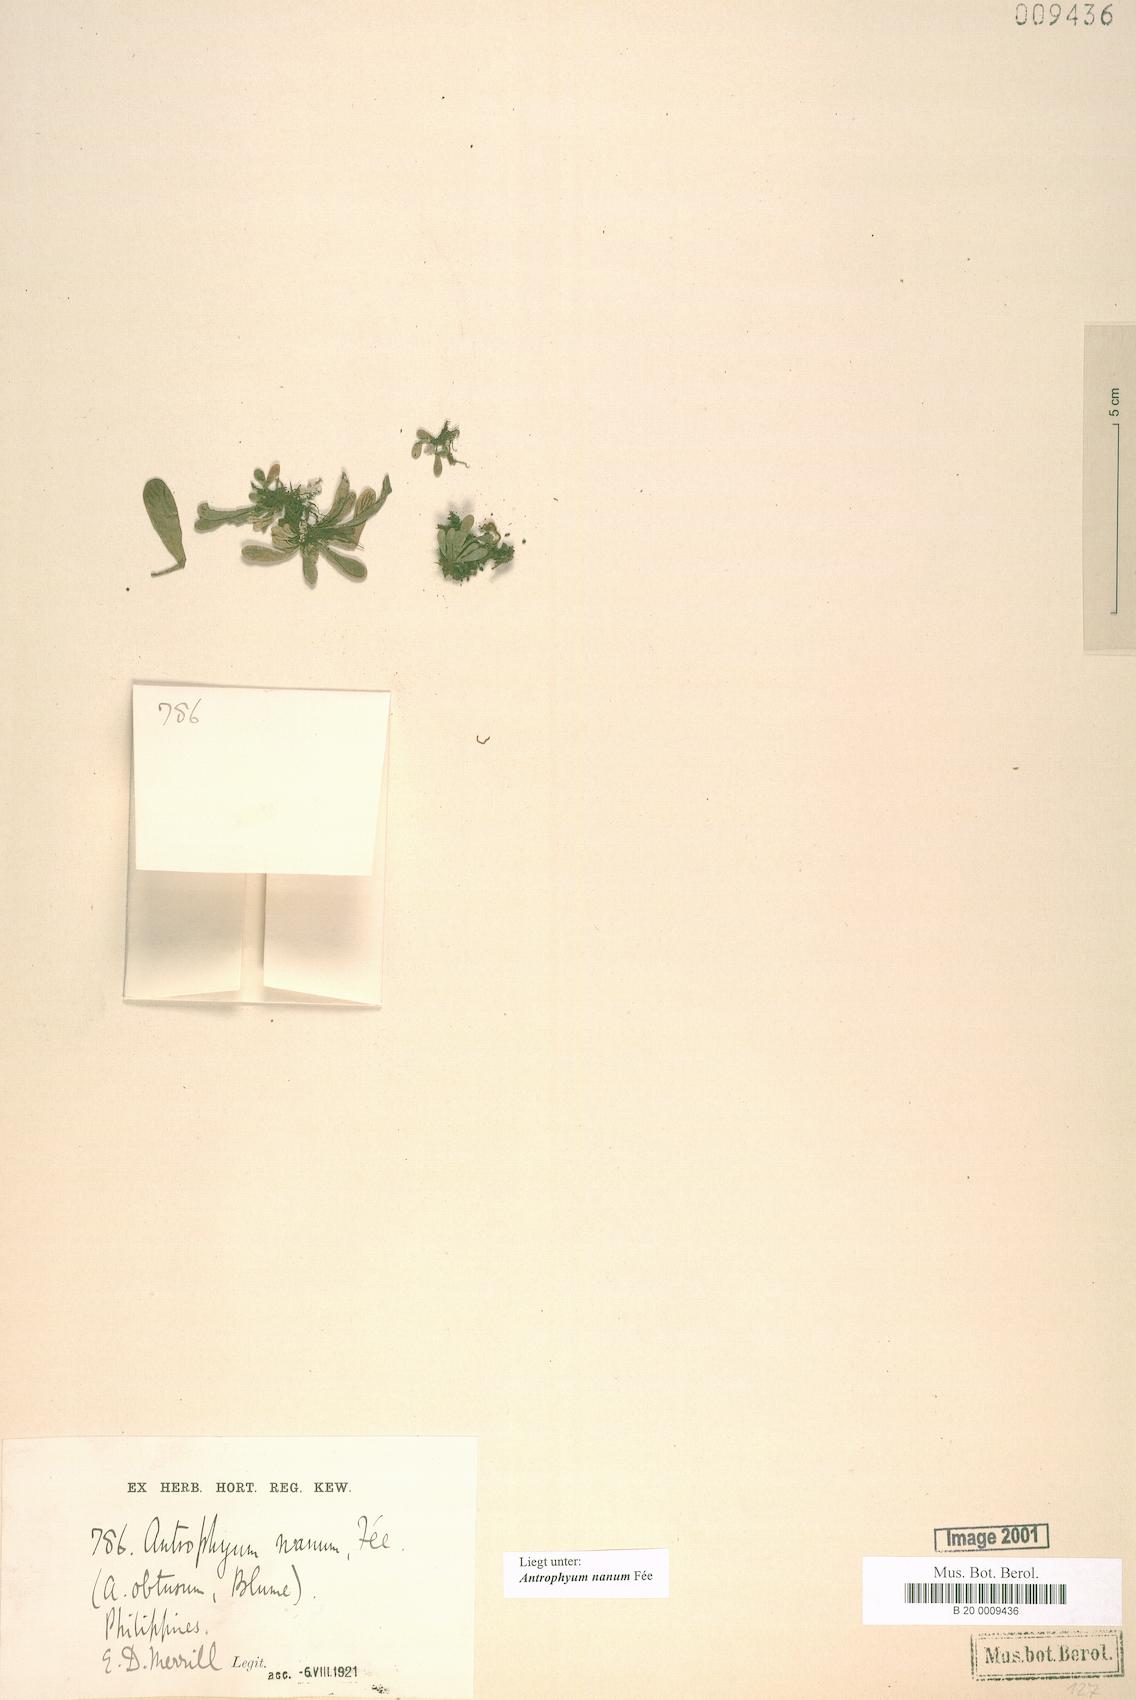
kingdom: Plantae
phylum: Tracheophyta
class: Polypodiopsida
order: Polypodiales
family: Pteridaceae
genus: Antrophyum
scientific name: Antrophyum callifolium
